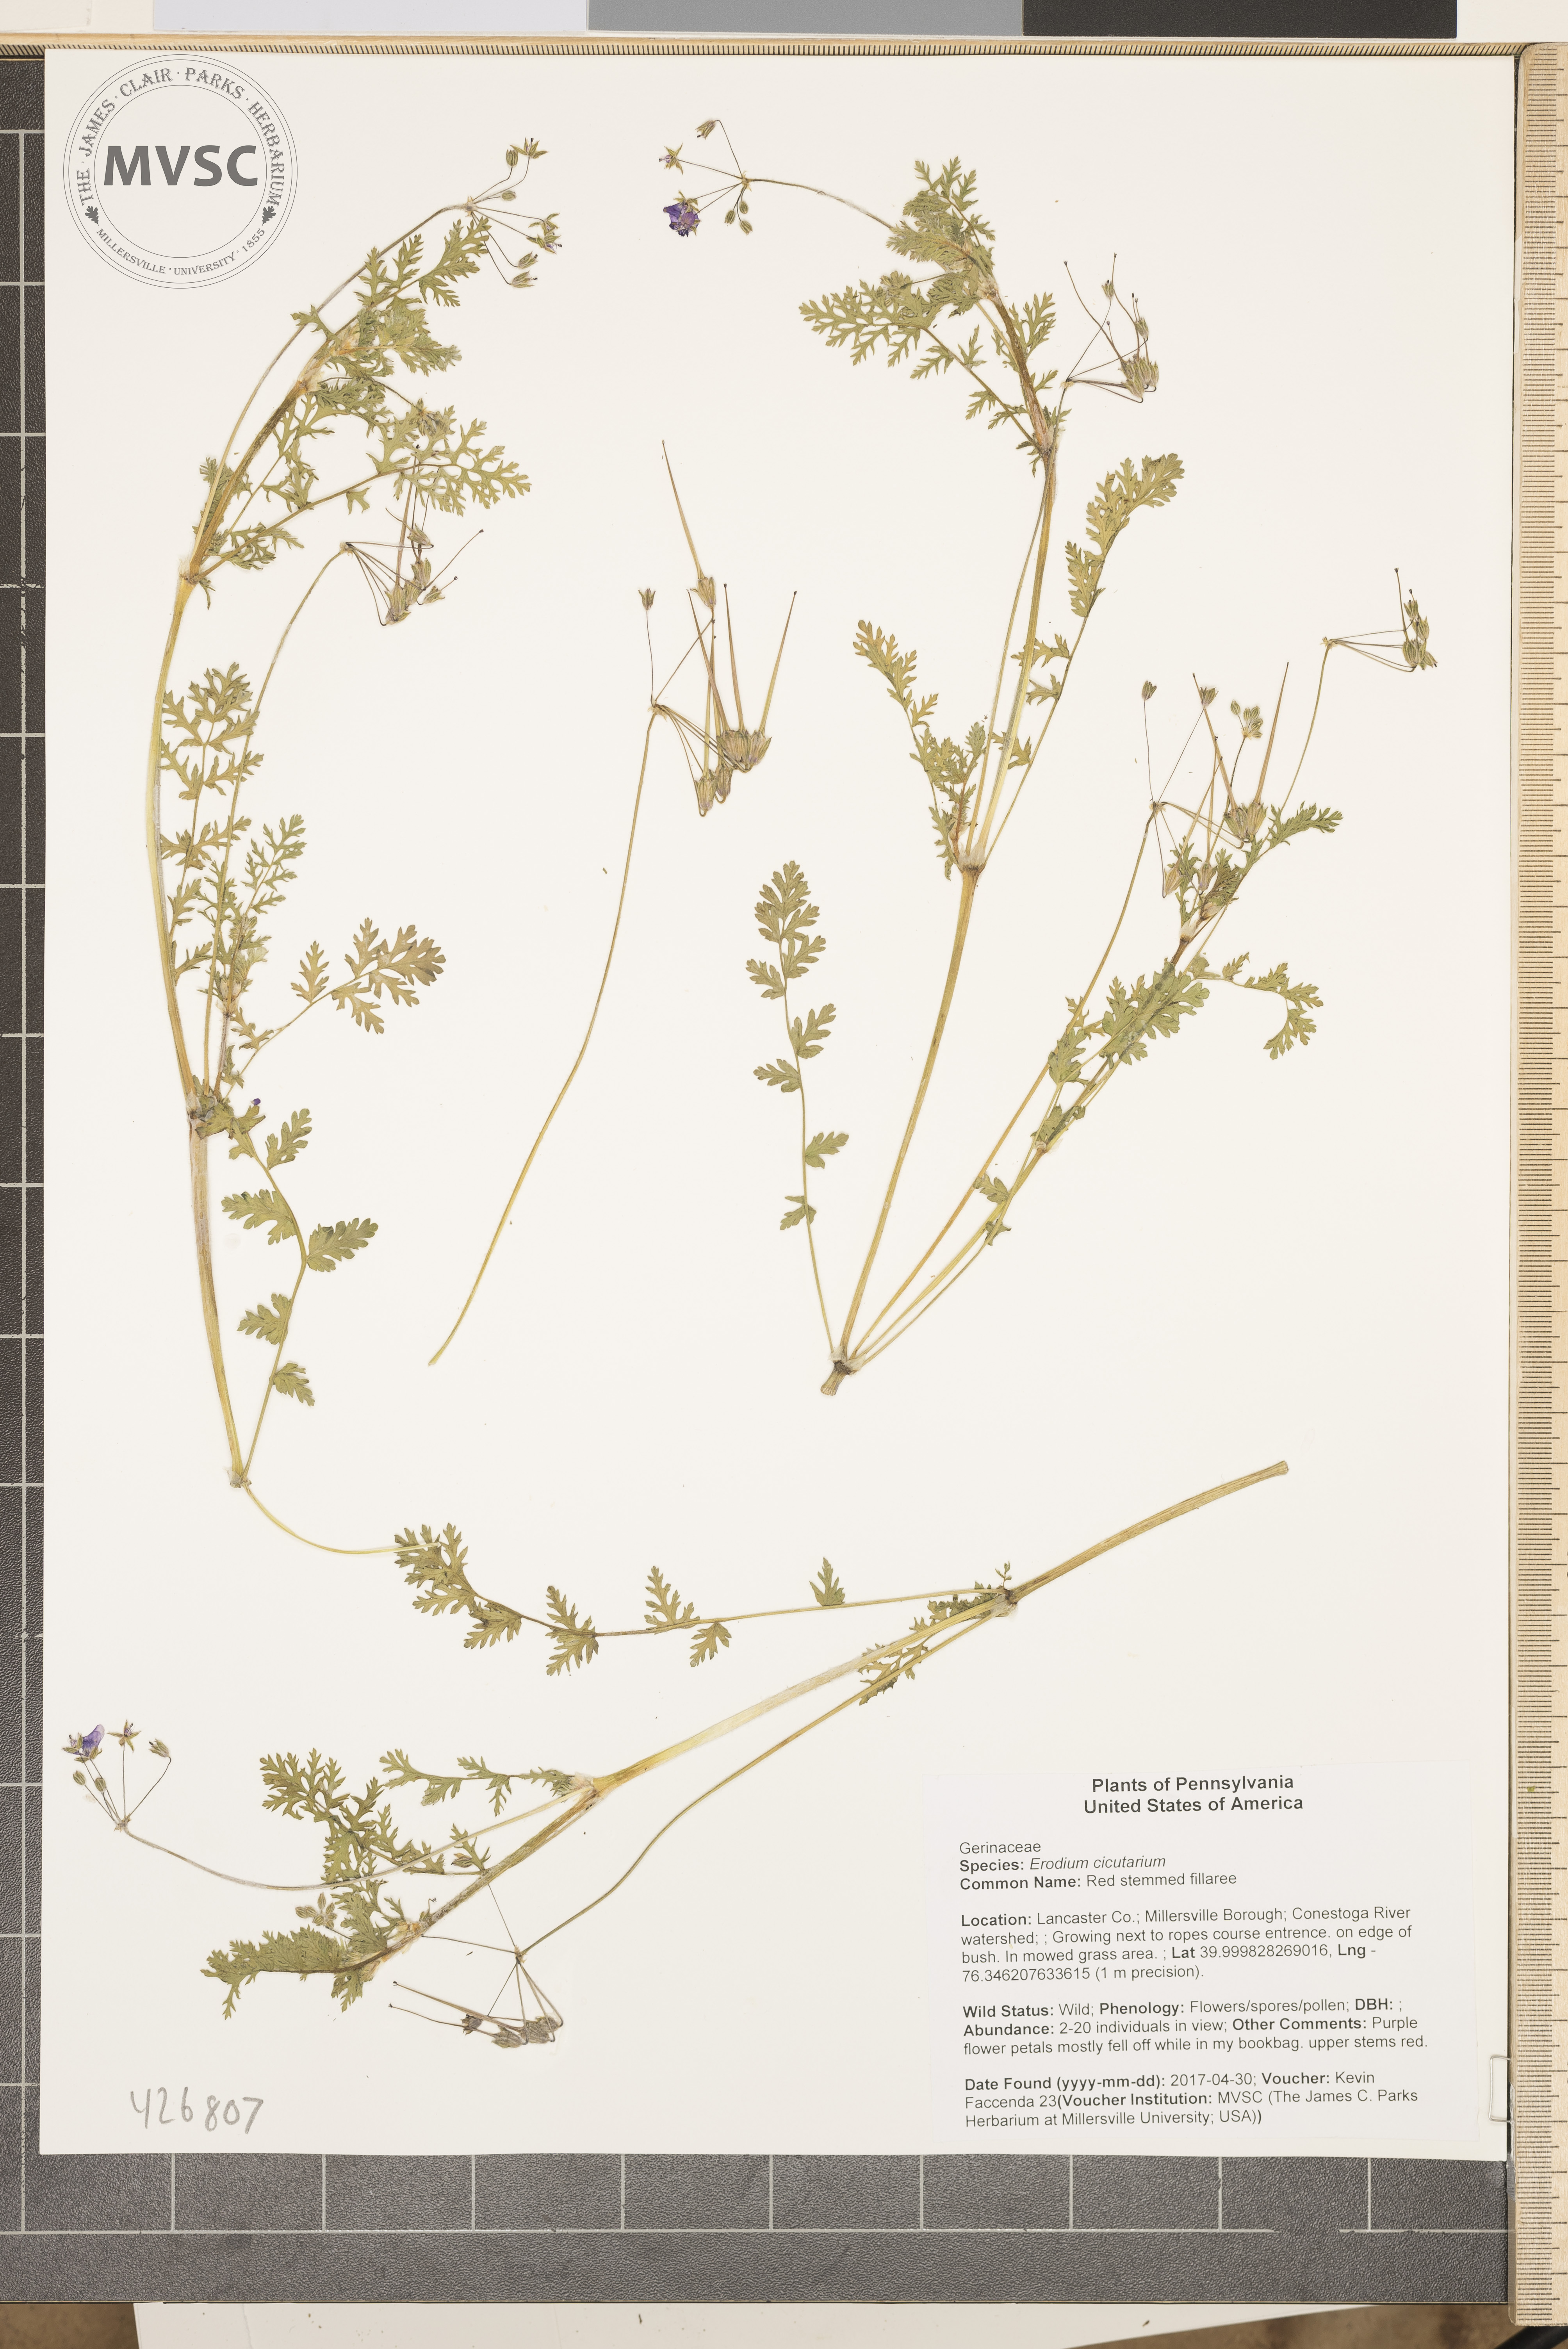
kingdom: Plantae
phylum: Tracheophyta
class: Magnoliopsida
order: Geraniales
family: Geraniaceae
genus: Erodium
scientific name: Erodium cicutarium
